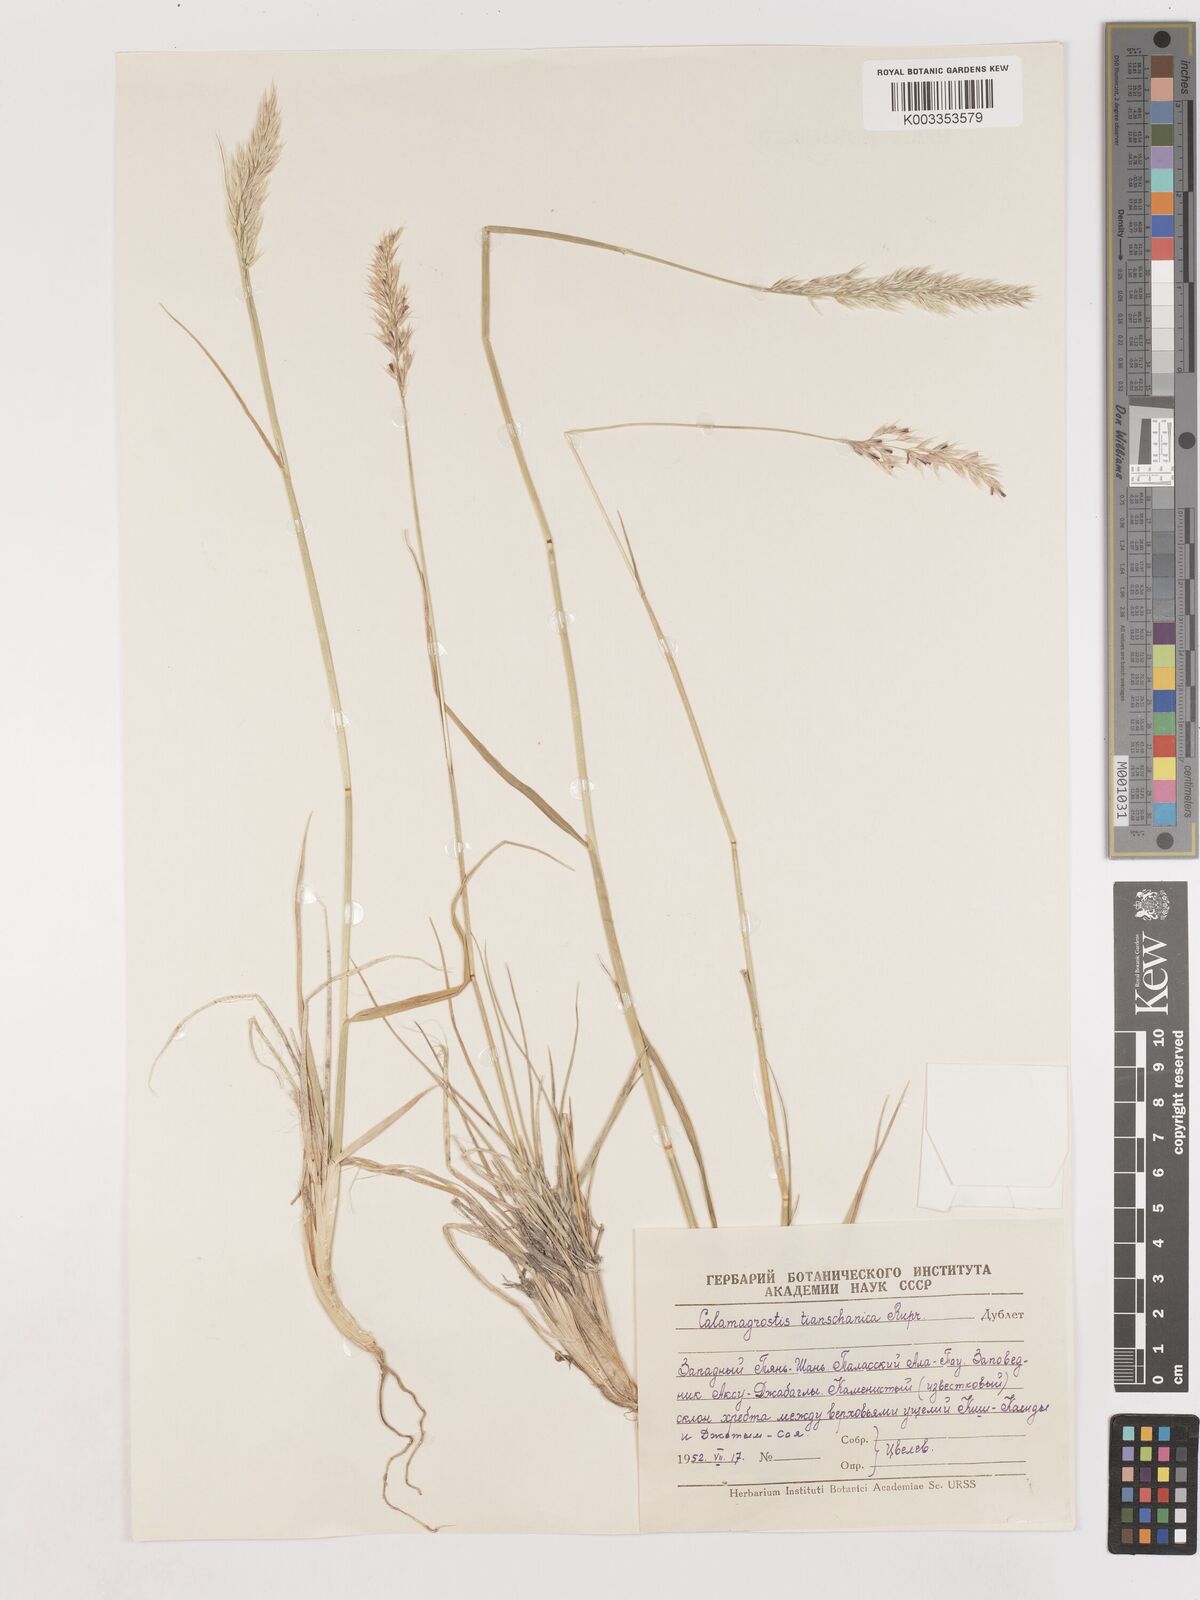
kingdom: Plantae
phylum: Tracheophyta
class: Liliopsida
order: Poales
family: Poaceae
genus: Calamagrostis
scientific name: Calamagrostis tianschanica
